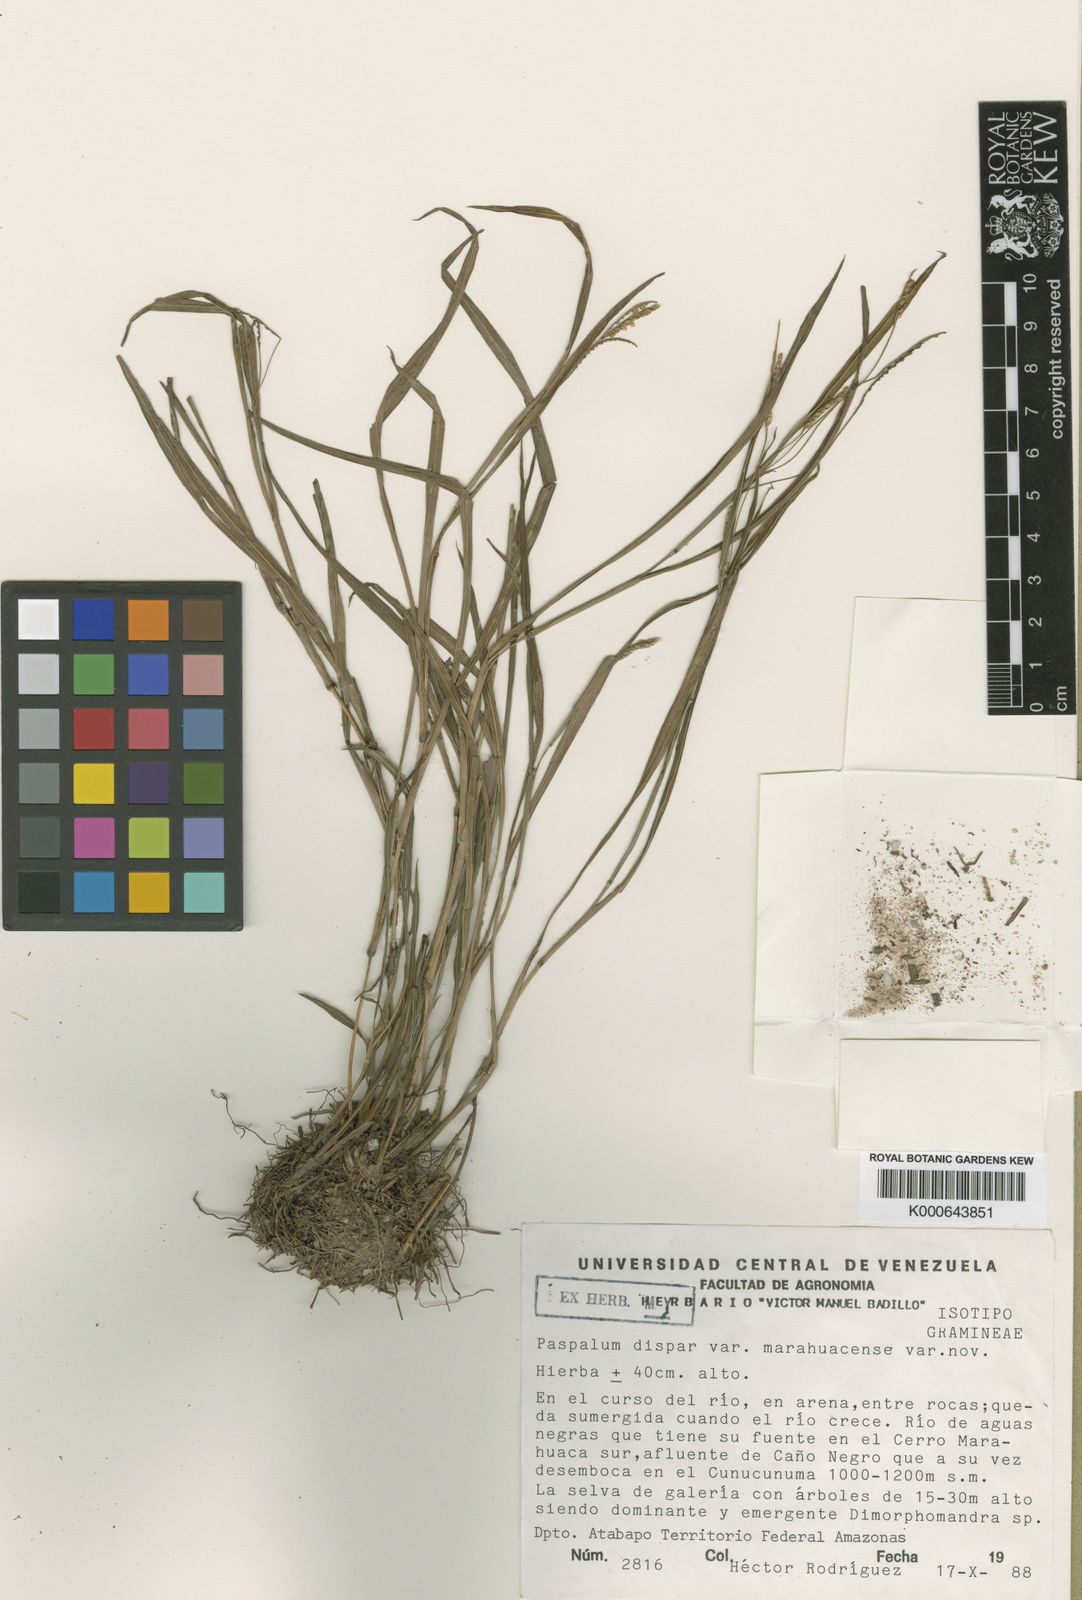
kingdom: Plantae
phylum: Tracheophyta
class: Liliopsida
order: Poales
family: Poaceae
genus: Paspalum
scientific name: Paspalum dispar
